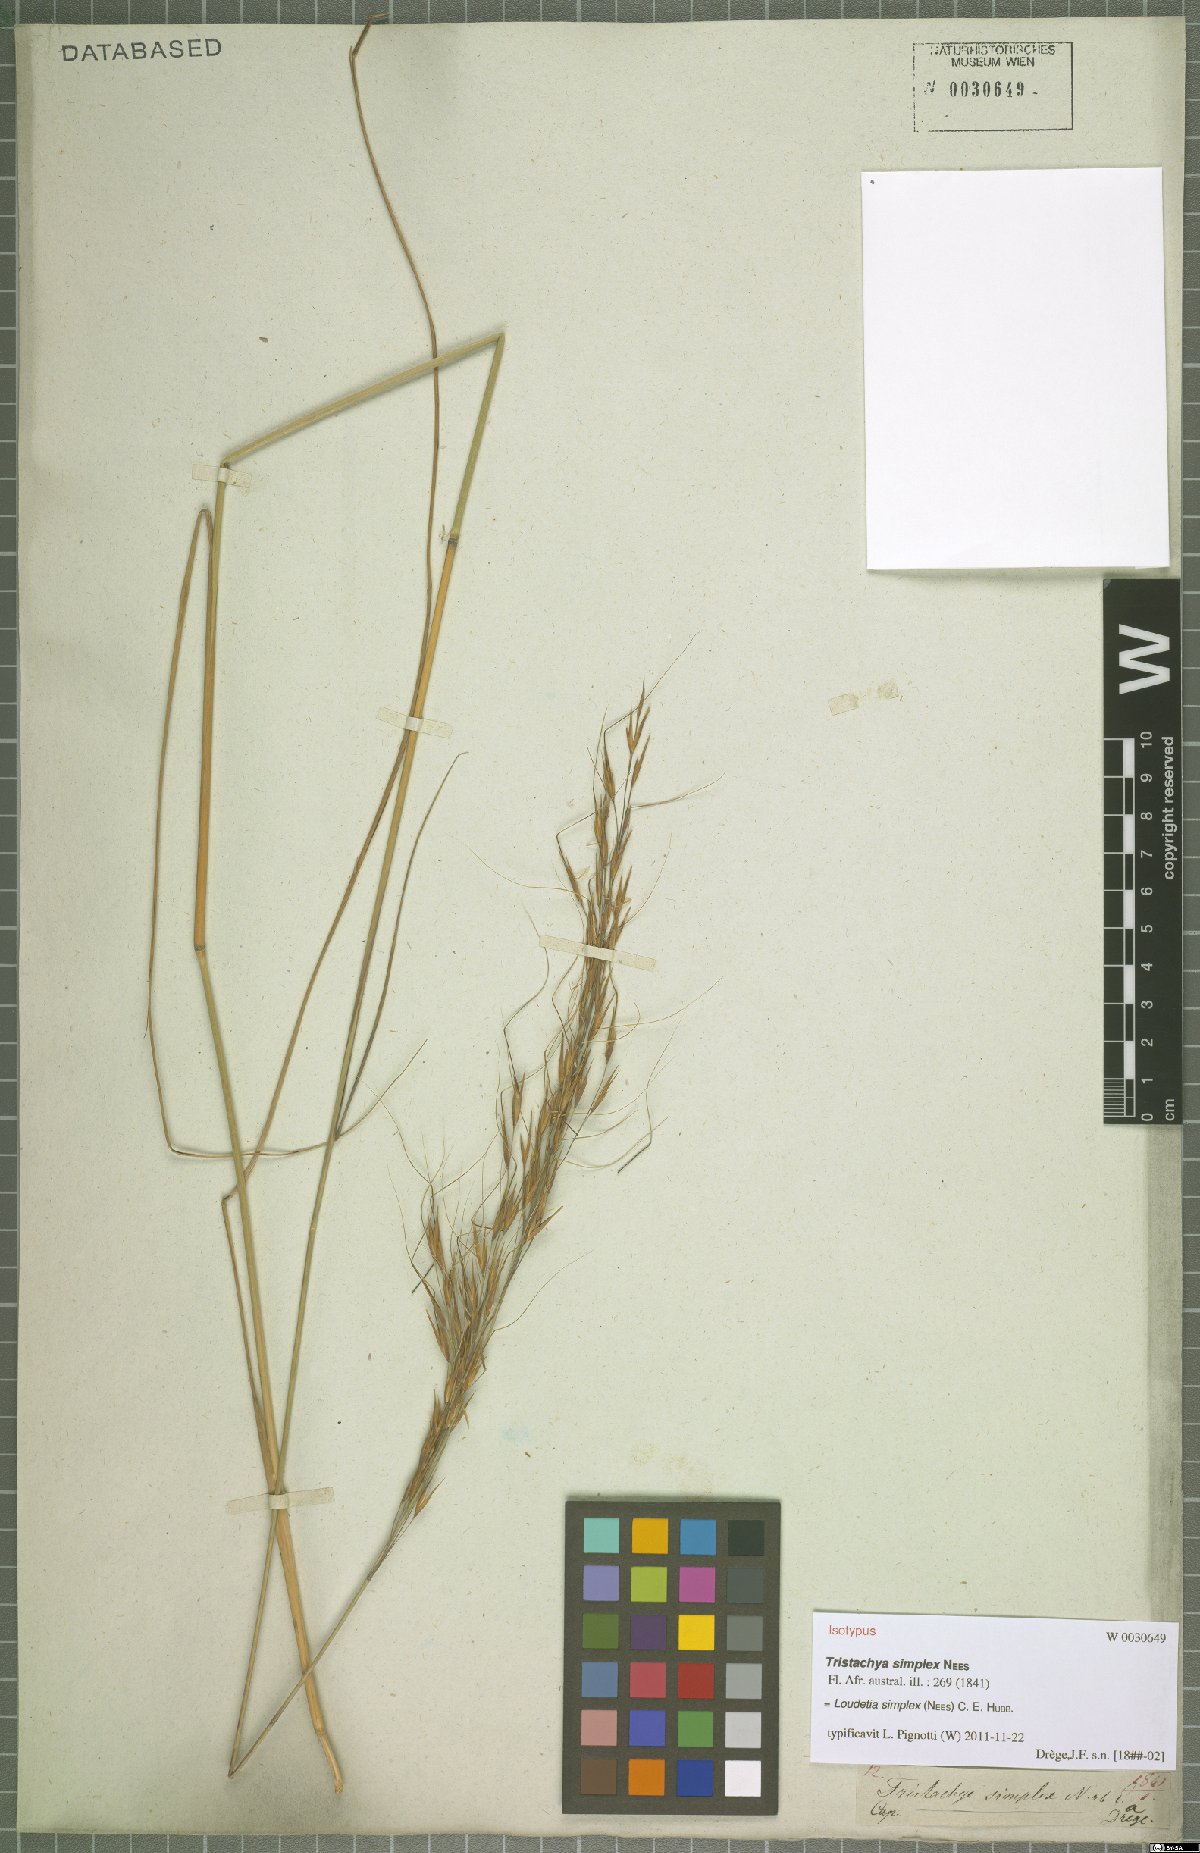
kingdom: Plantae
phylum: Tracheophyta
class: Liliopsida
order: Poales
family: Poaceae
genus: Loudetia
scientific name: Loudetia simplex
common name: Common russet grass
